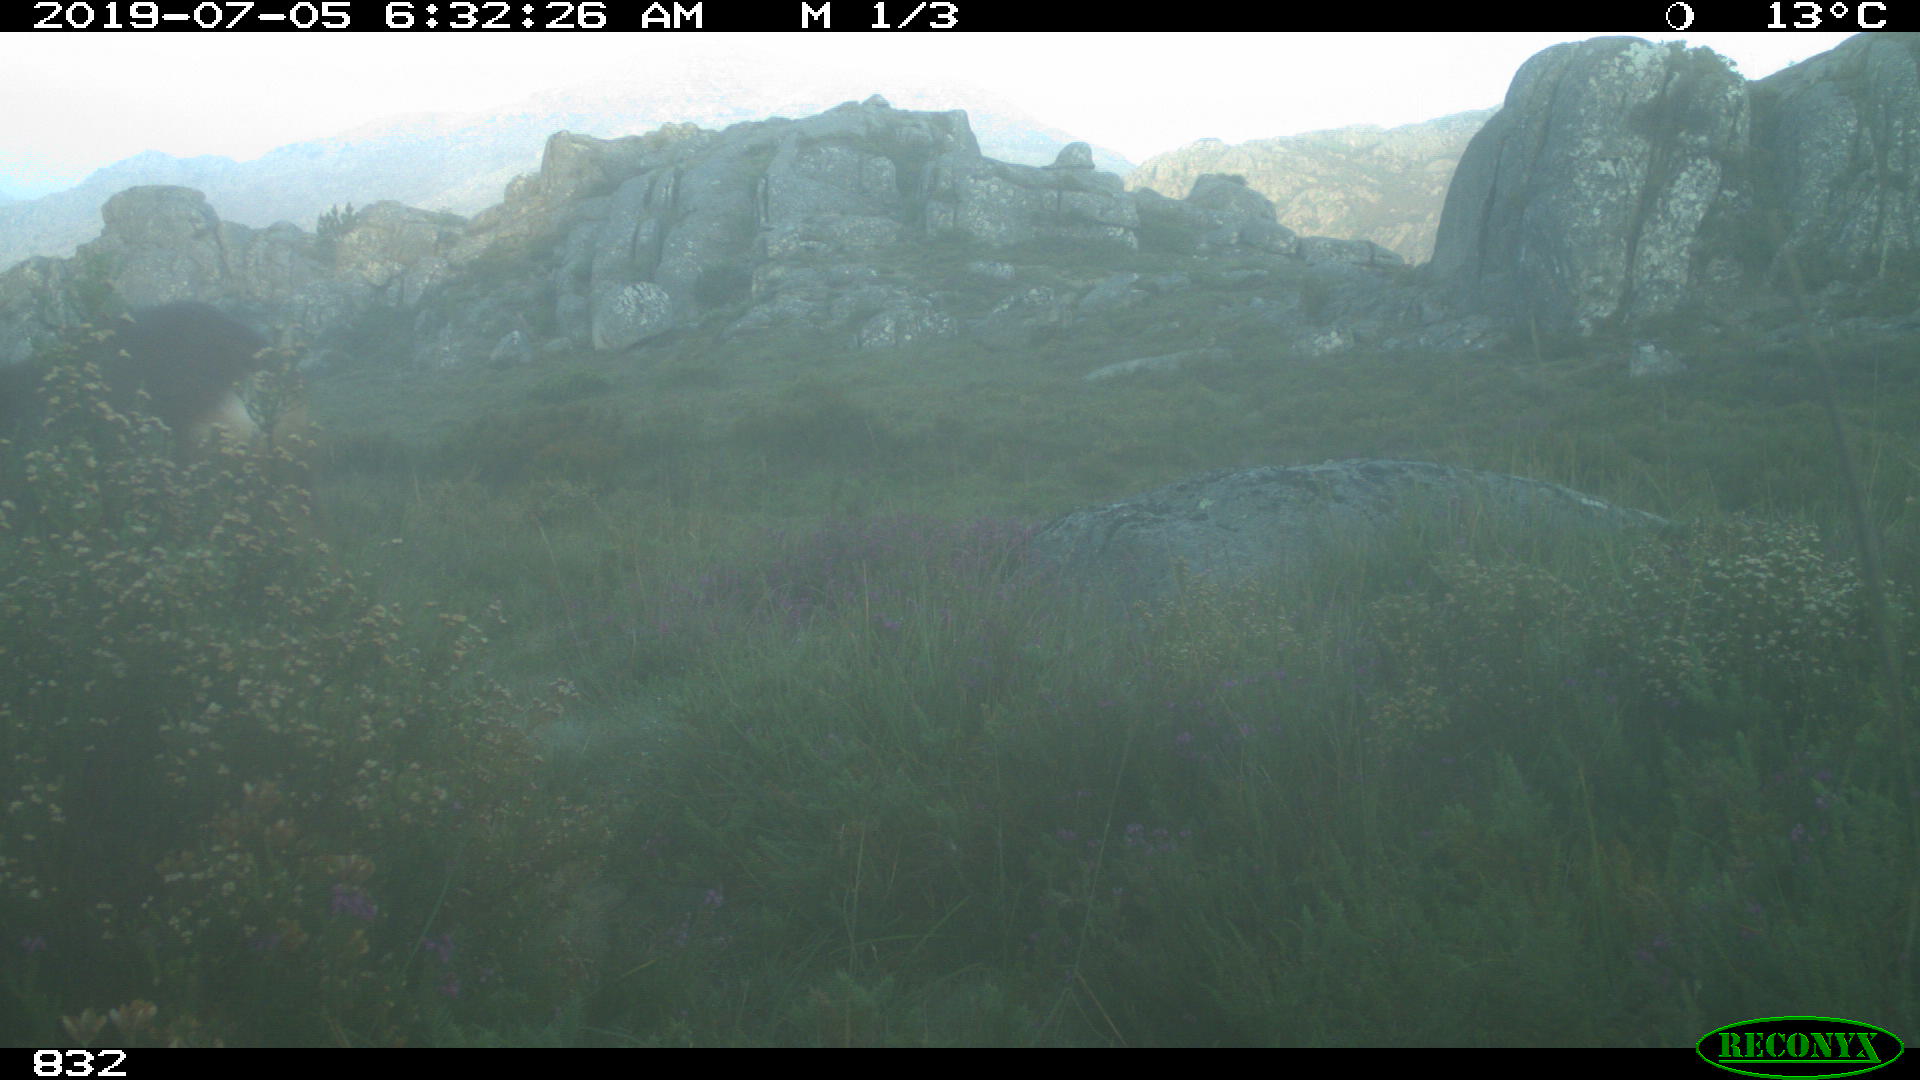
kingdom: Animalia
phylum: Chordata
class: Mammalia
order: Artiodactyla
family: Cervidae
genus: Capreolus
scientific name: Capreolus capreolus
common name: Western roe deer
